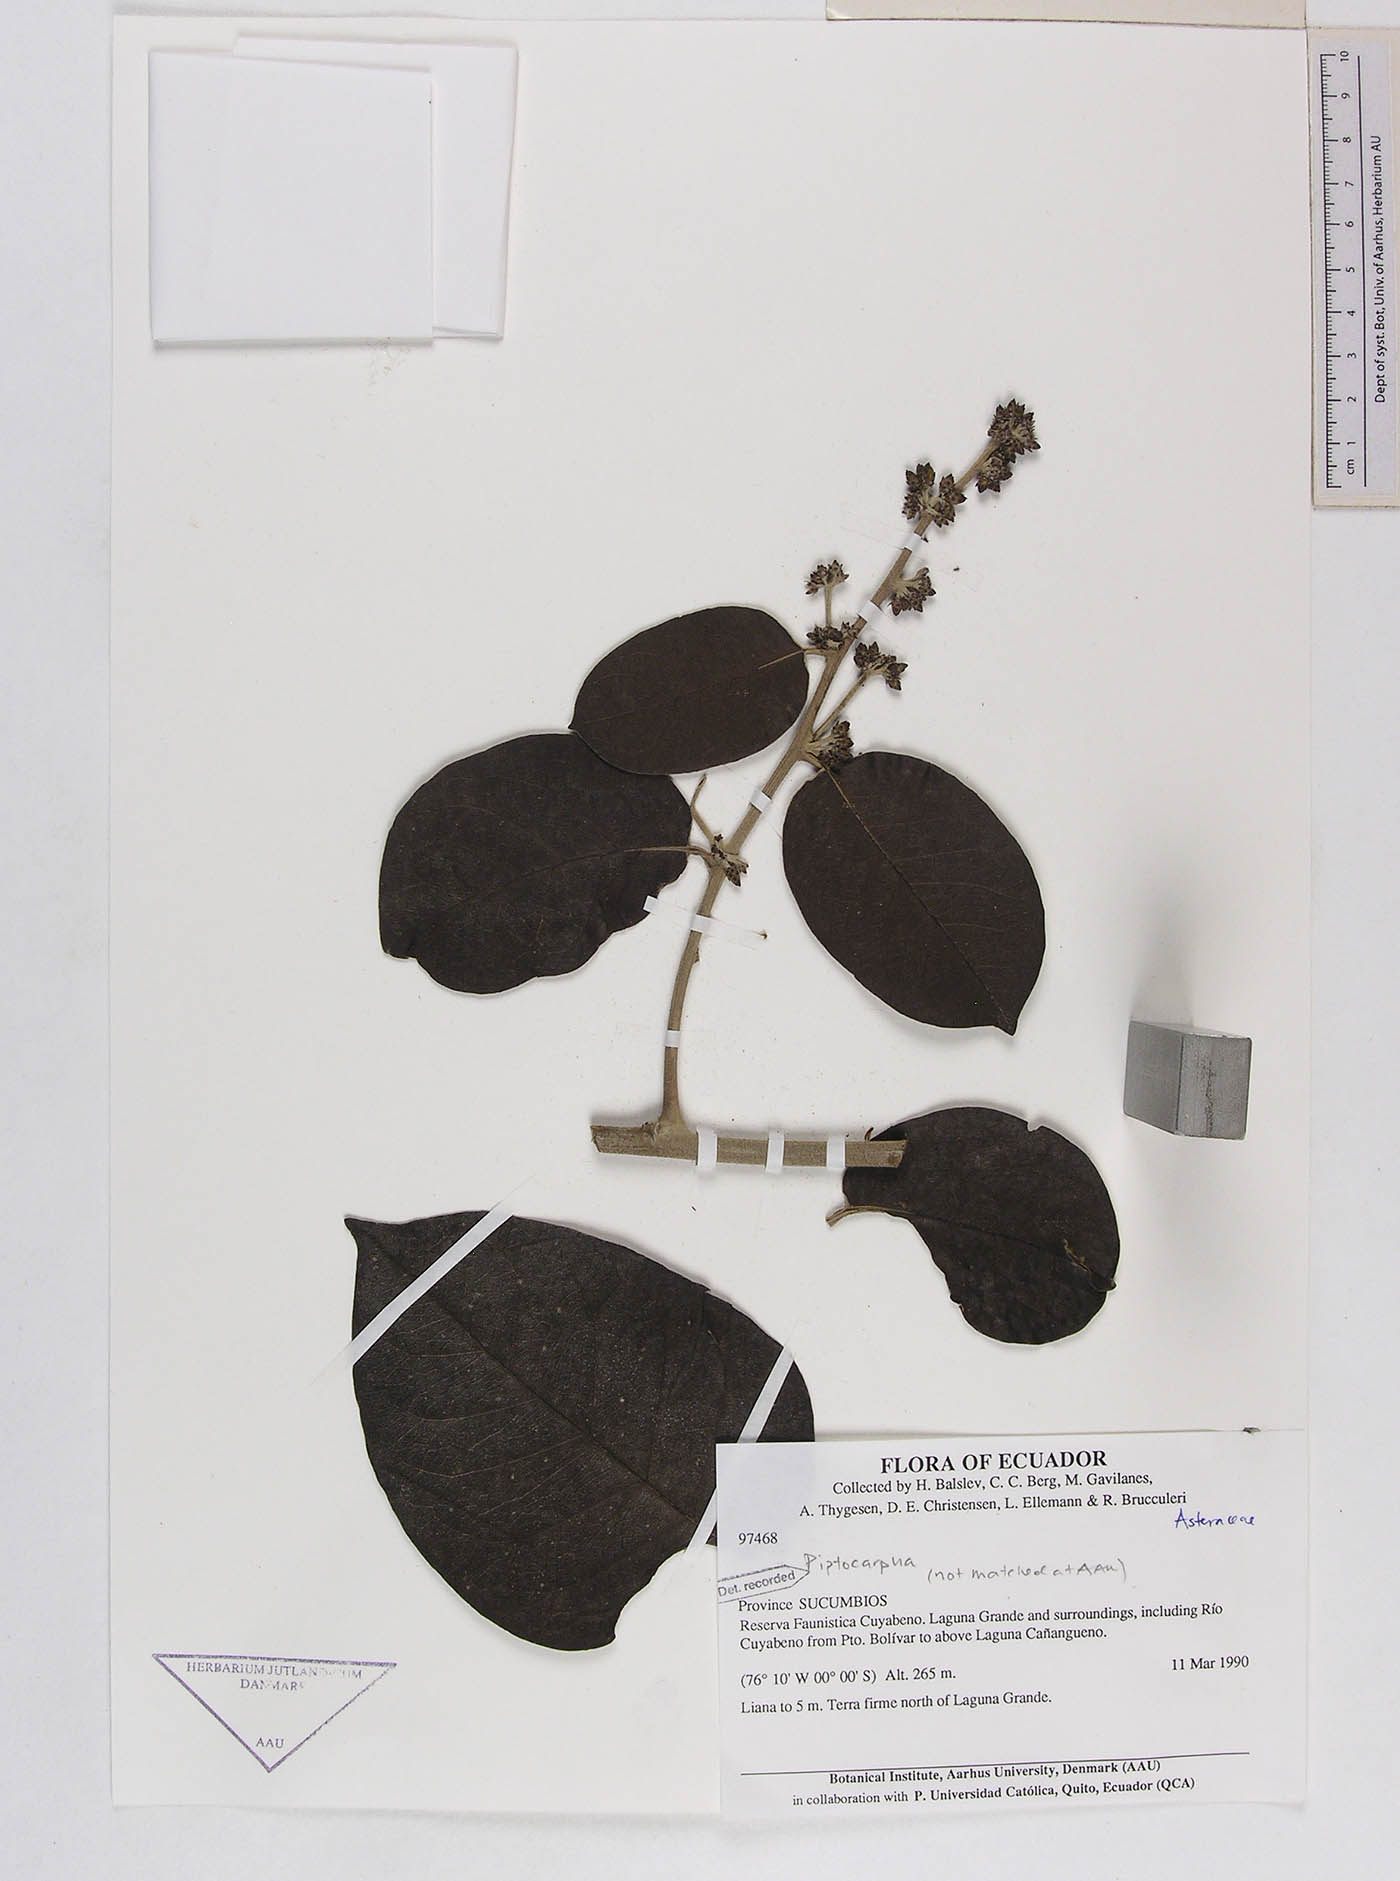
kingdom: Plantae
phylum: Tracheophyta
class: Magnoliopsida
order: Asterales
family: Asteraceae
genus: Piptocarpha
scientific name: Piptocarpha gutierrezii
